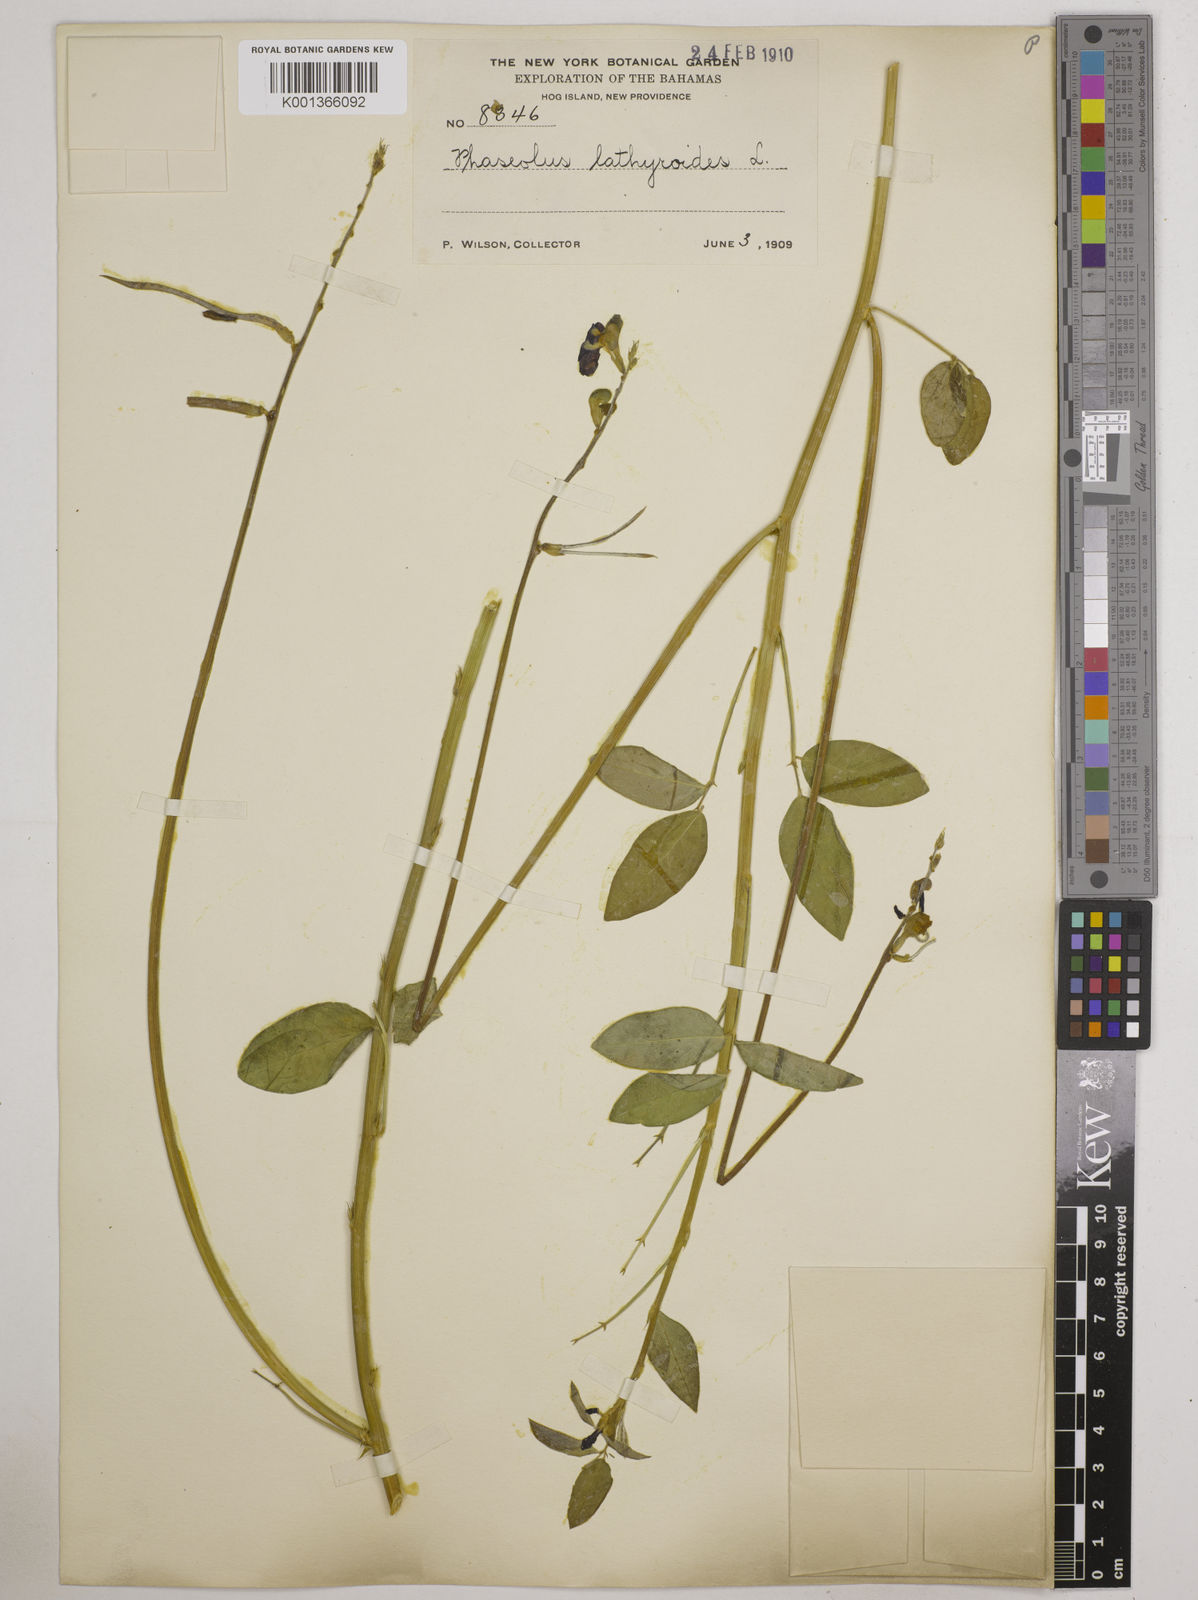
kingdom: Plantae
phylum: Tracheophyta
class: Magnoliopsida
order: Fabales
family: Fabaceae
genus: Macroptilium
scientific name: Macroptilium lathyroides
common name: Wild bushbean
